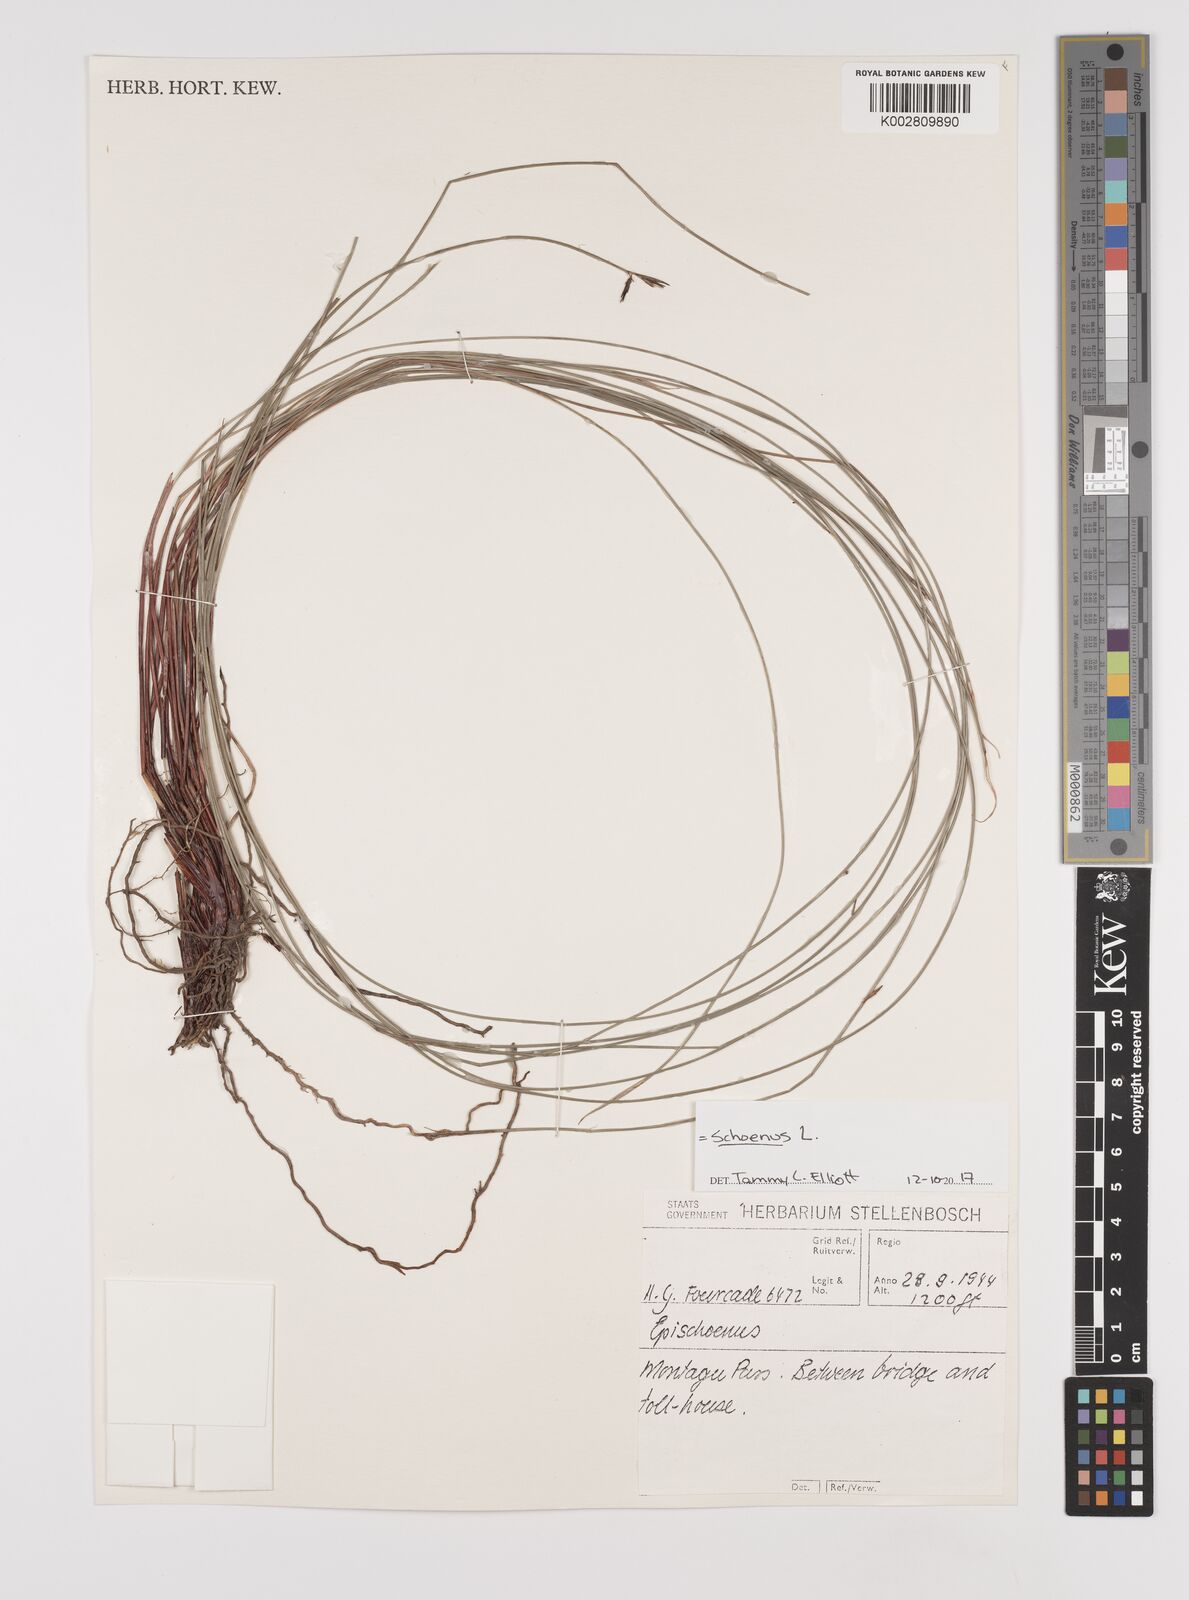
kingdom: Plantae
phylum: Tracheophyta
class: Liliopsida
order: Poales
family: Cyperaceae
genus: Schoenus
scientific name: Schoenus
